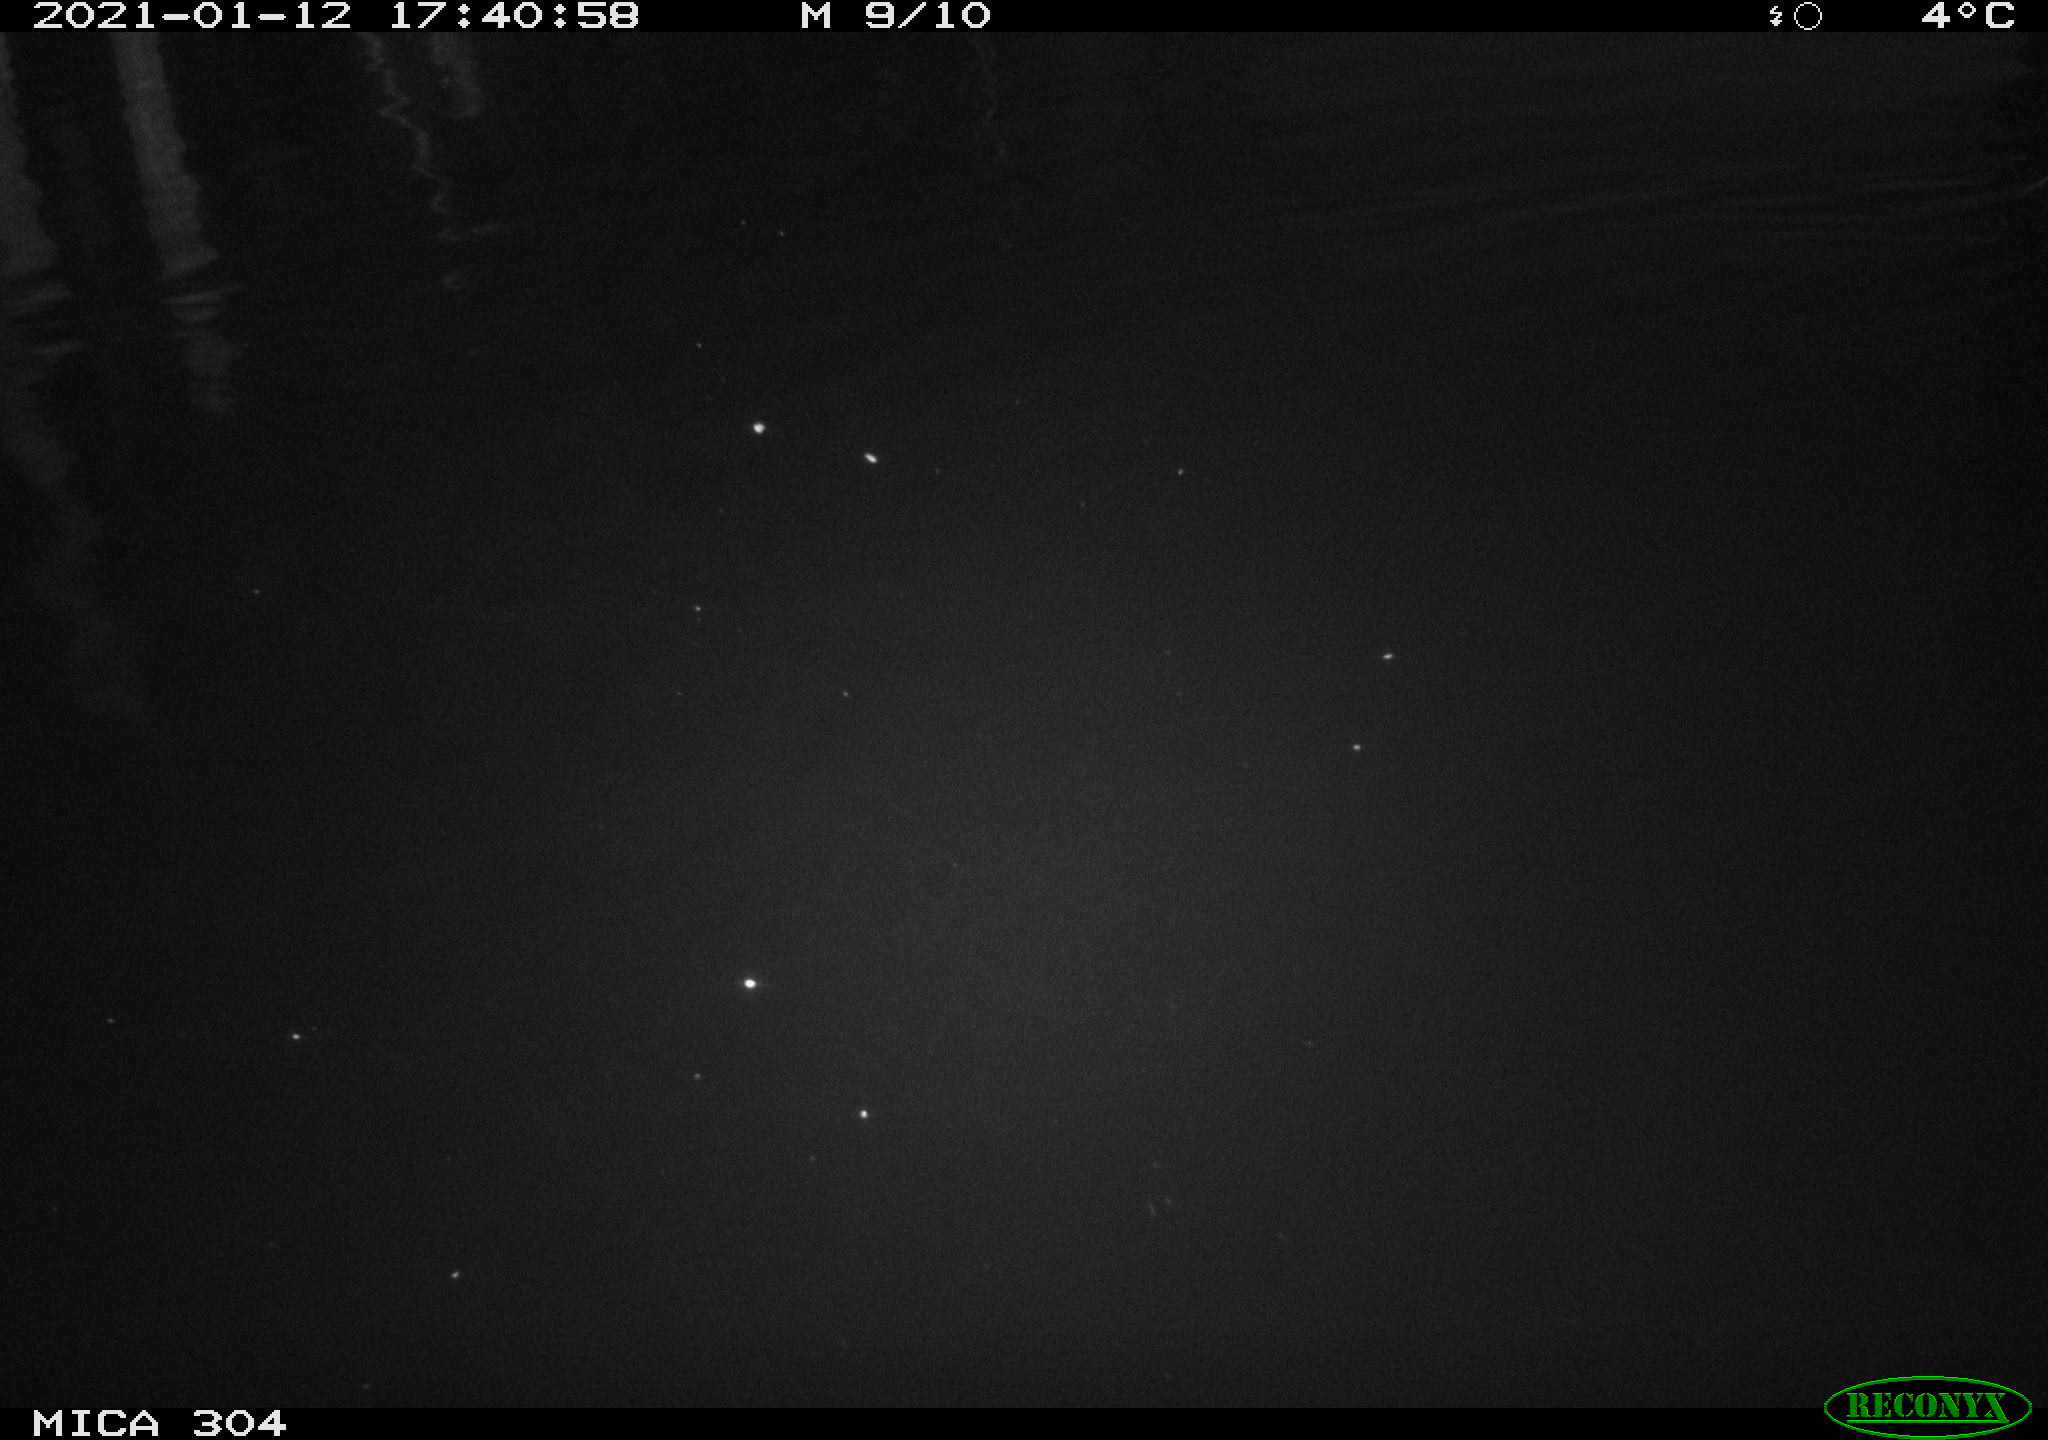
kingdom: Animalia
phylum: Chordata
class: Mammalia
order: Rodentia
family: Muridae
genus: Rattus
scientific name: Rattus norvegicus
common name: Brown rat
